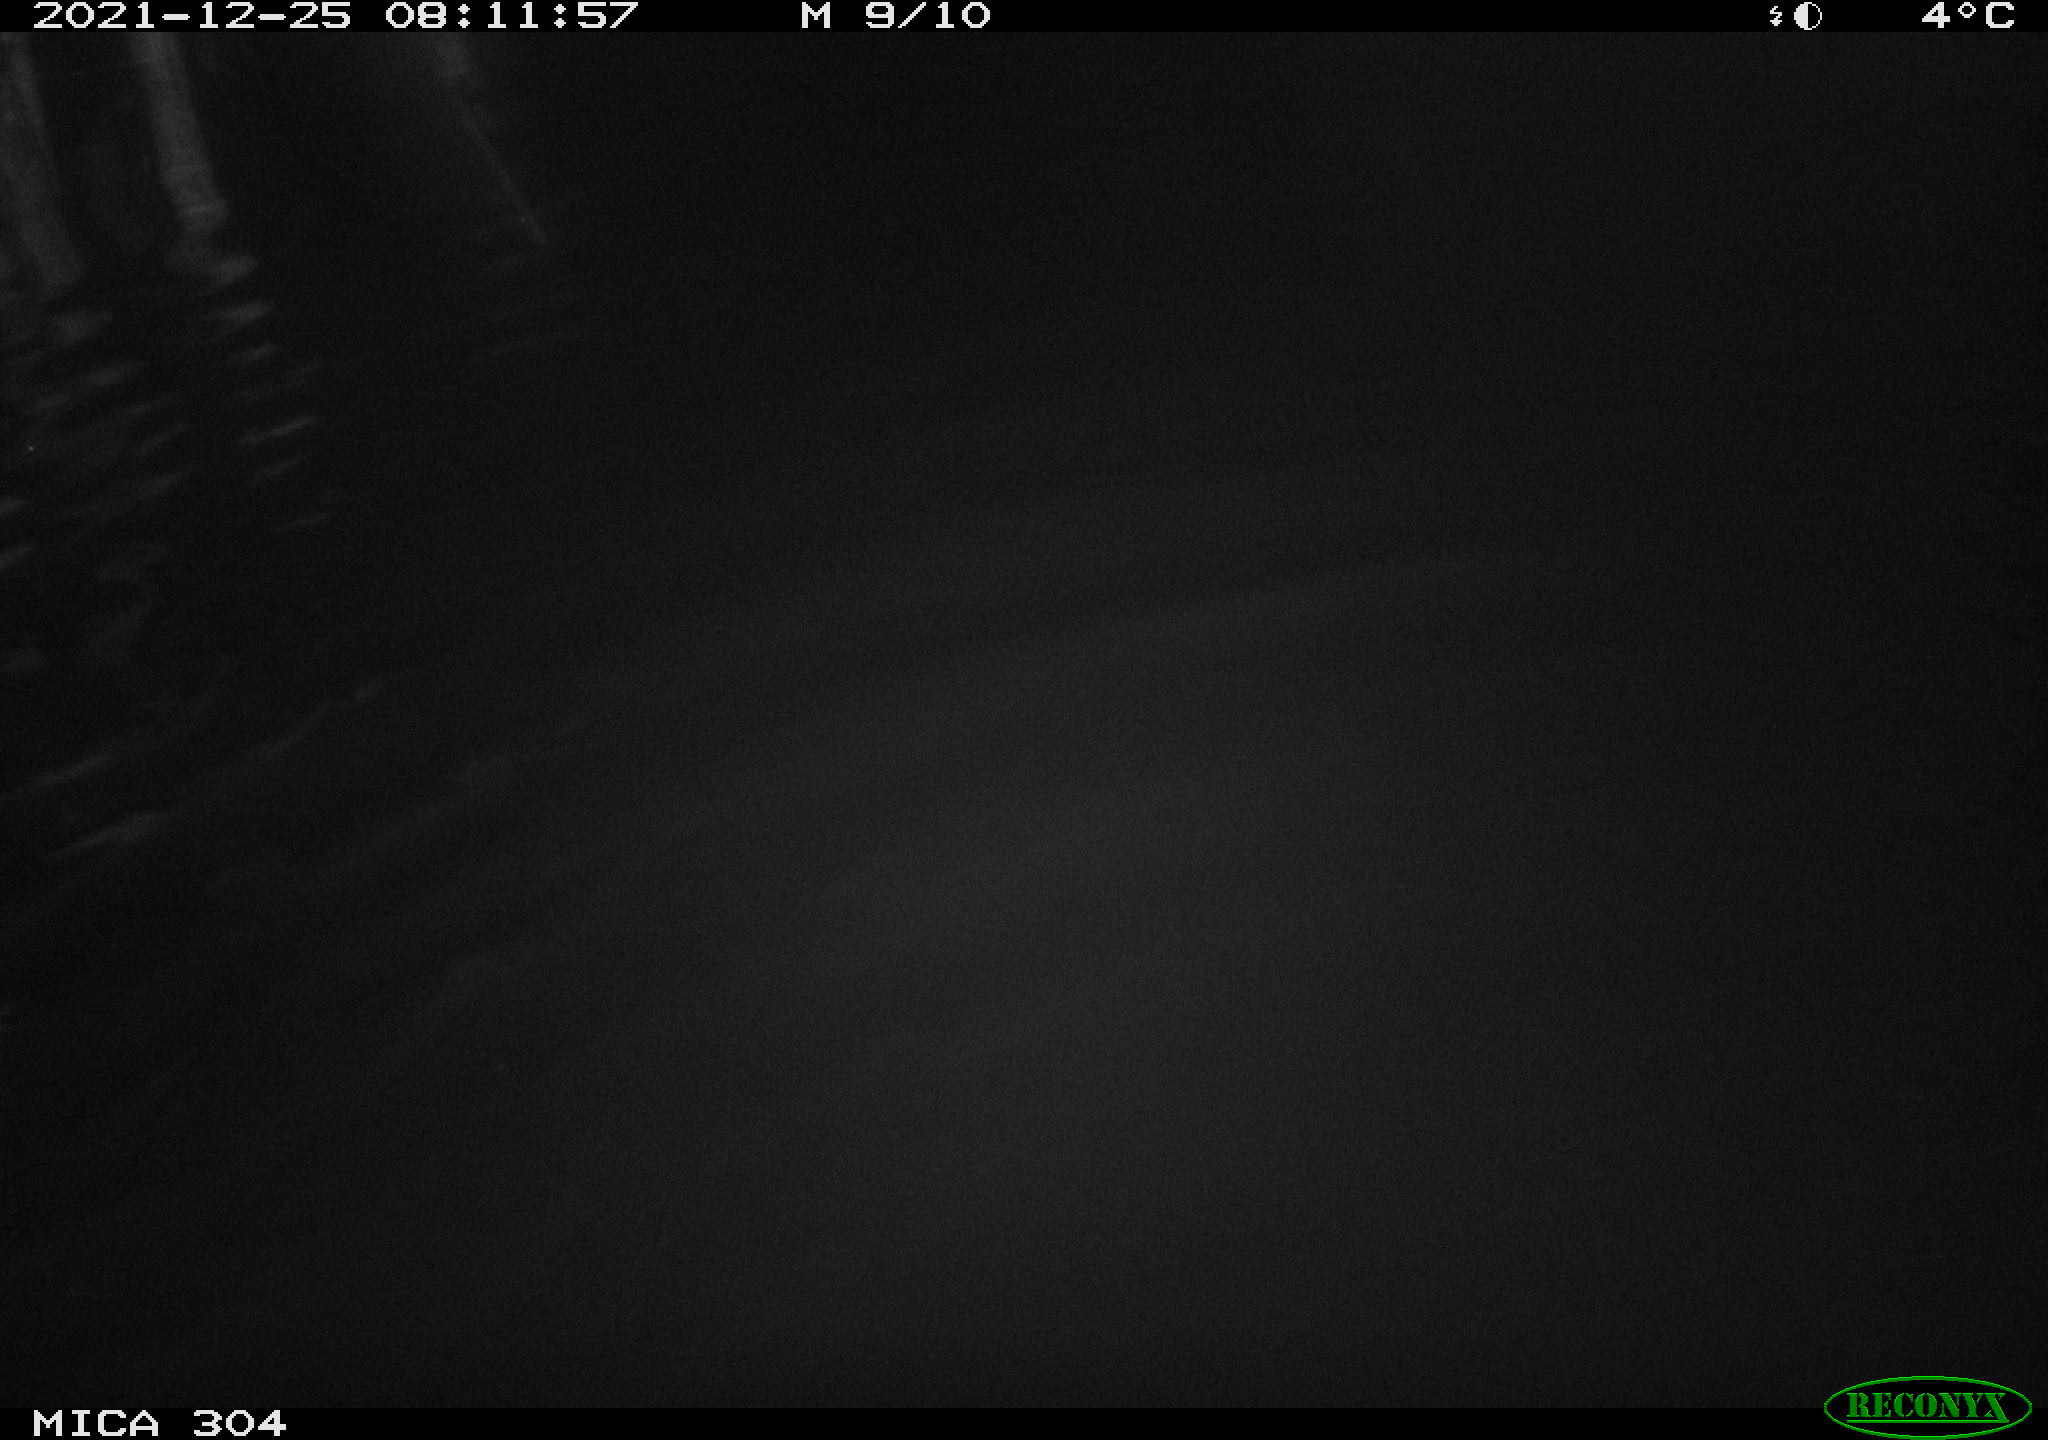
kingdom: Animalia
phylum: Chordata
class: Aves
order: Anseriformes
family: Anatidae
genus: Anas
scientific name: Anas
